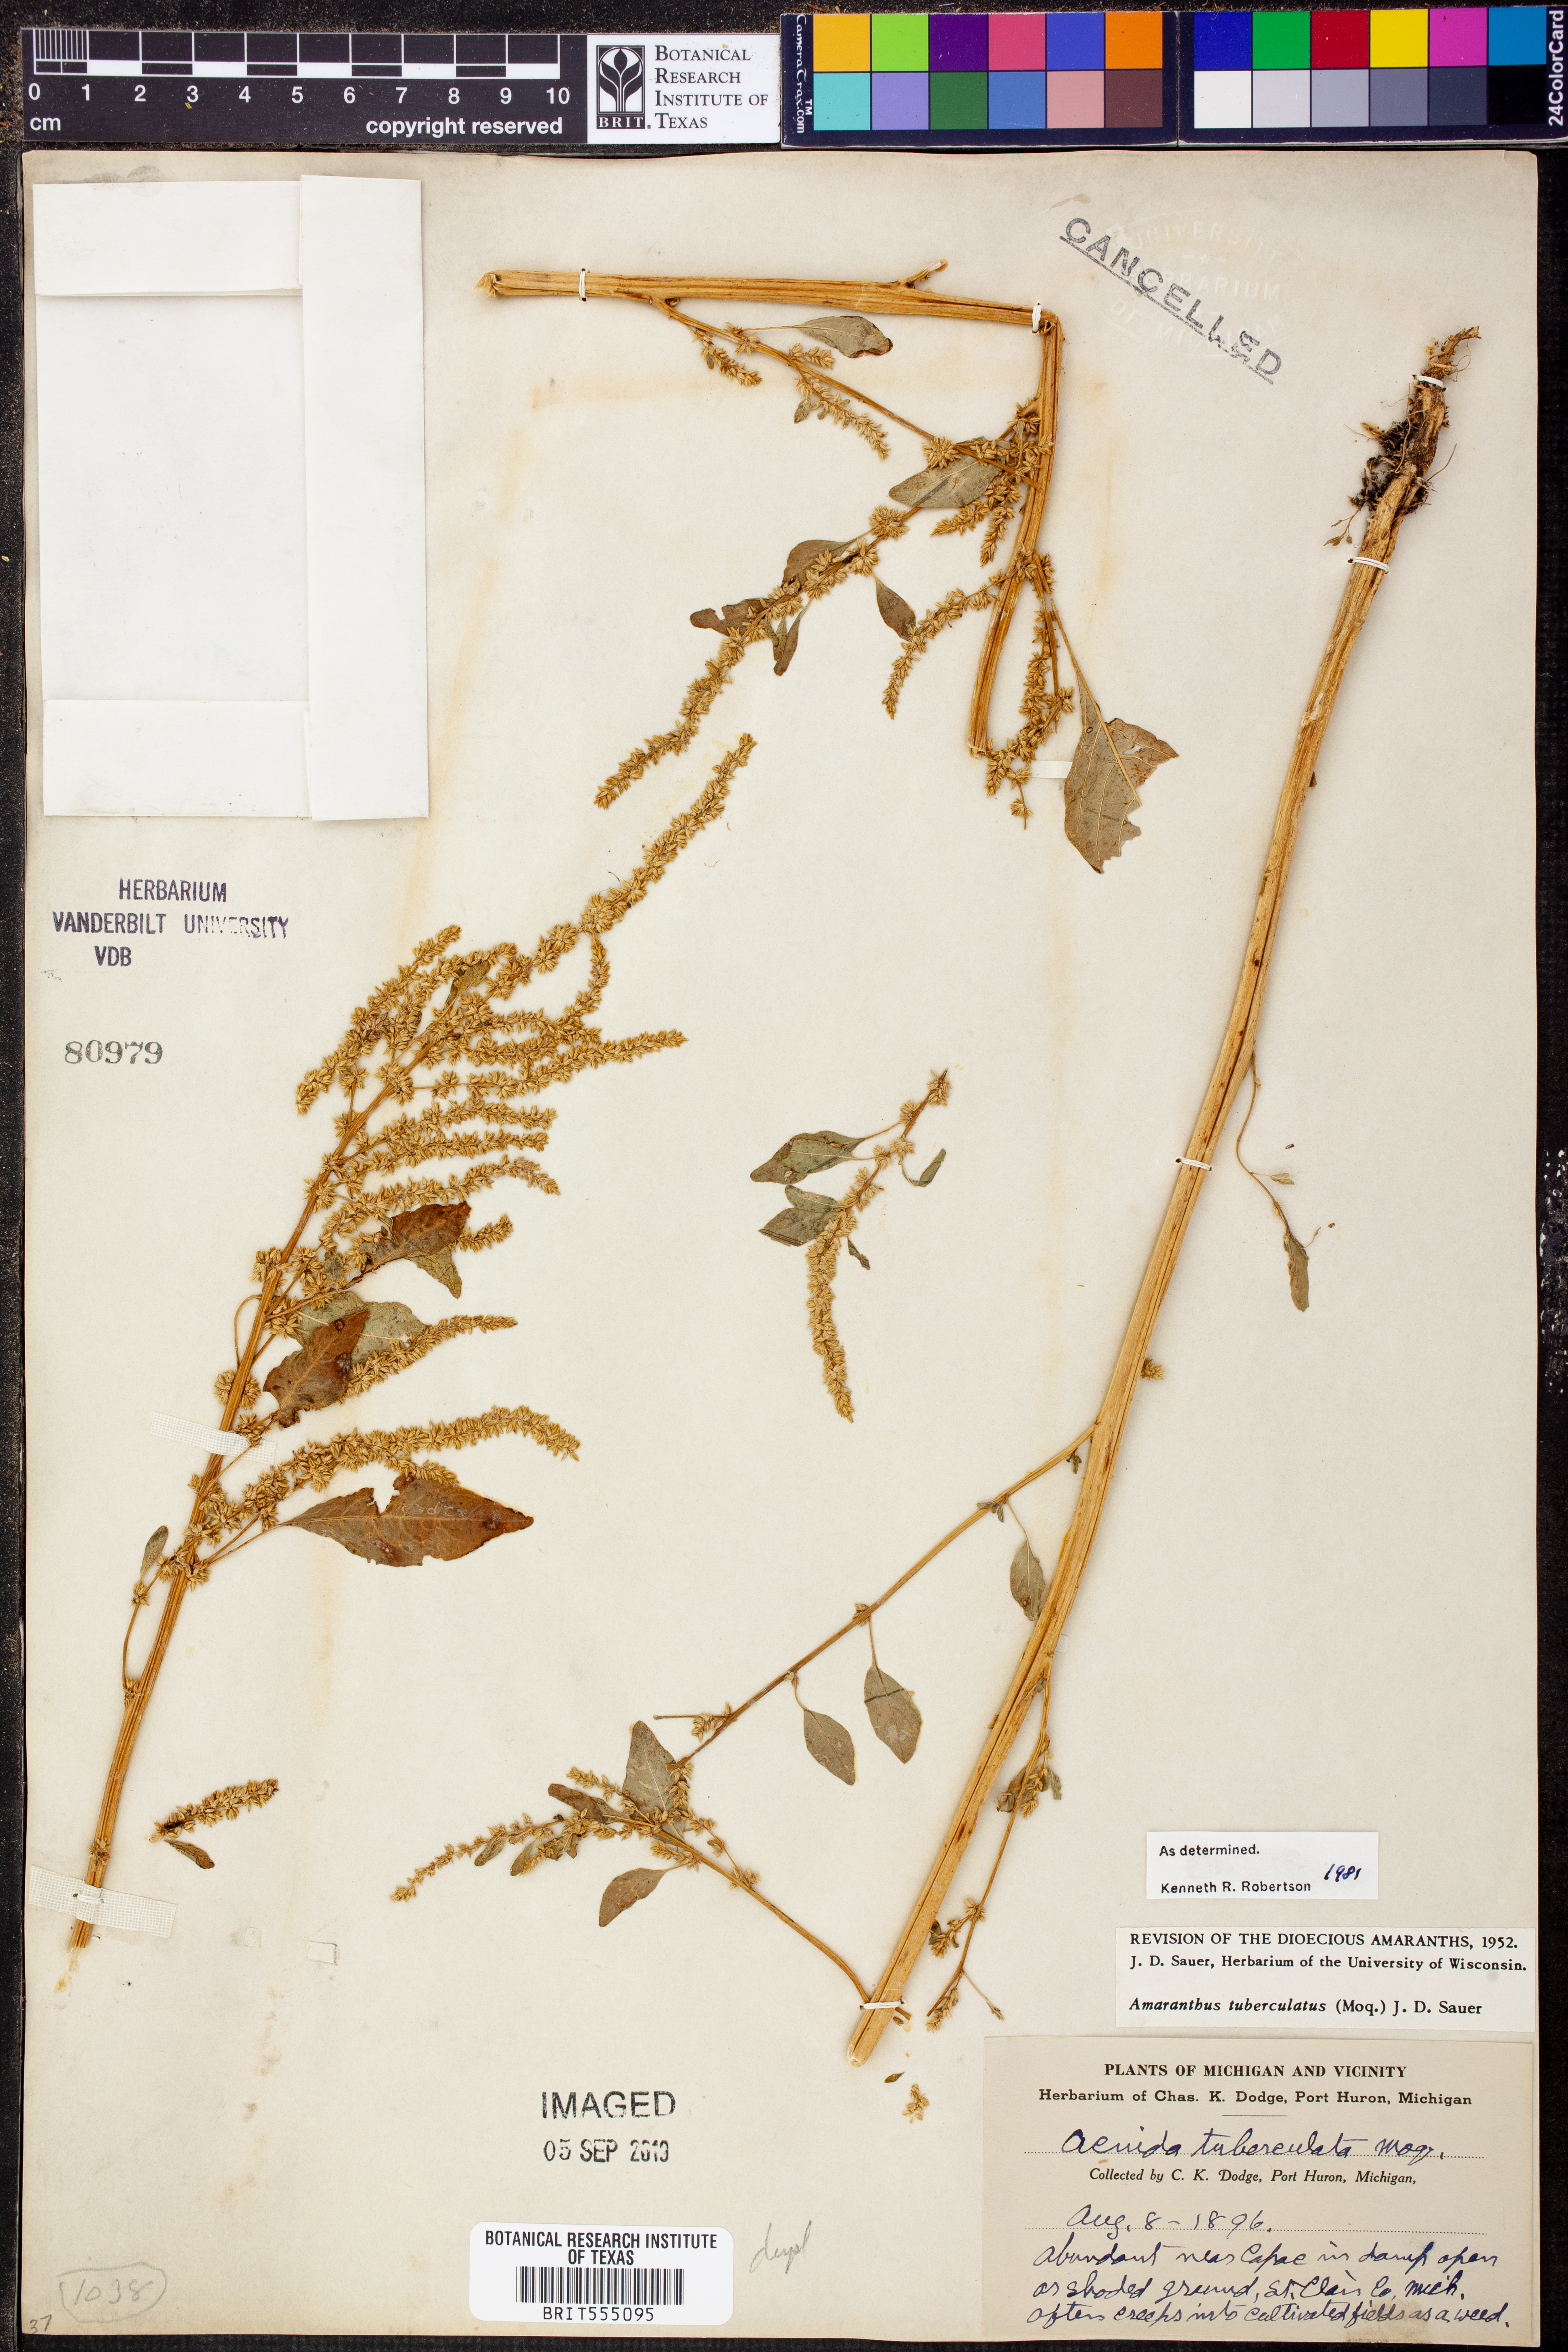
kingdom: Plantae
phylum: Tracheophyta
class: Magnoliopsida
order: Caryophyllales
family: Amaranthaceae
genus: Amaranthus
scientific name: Amaranthus tamariscinus
